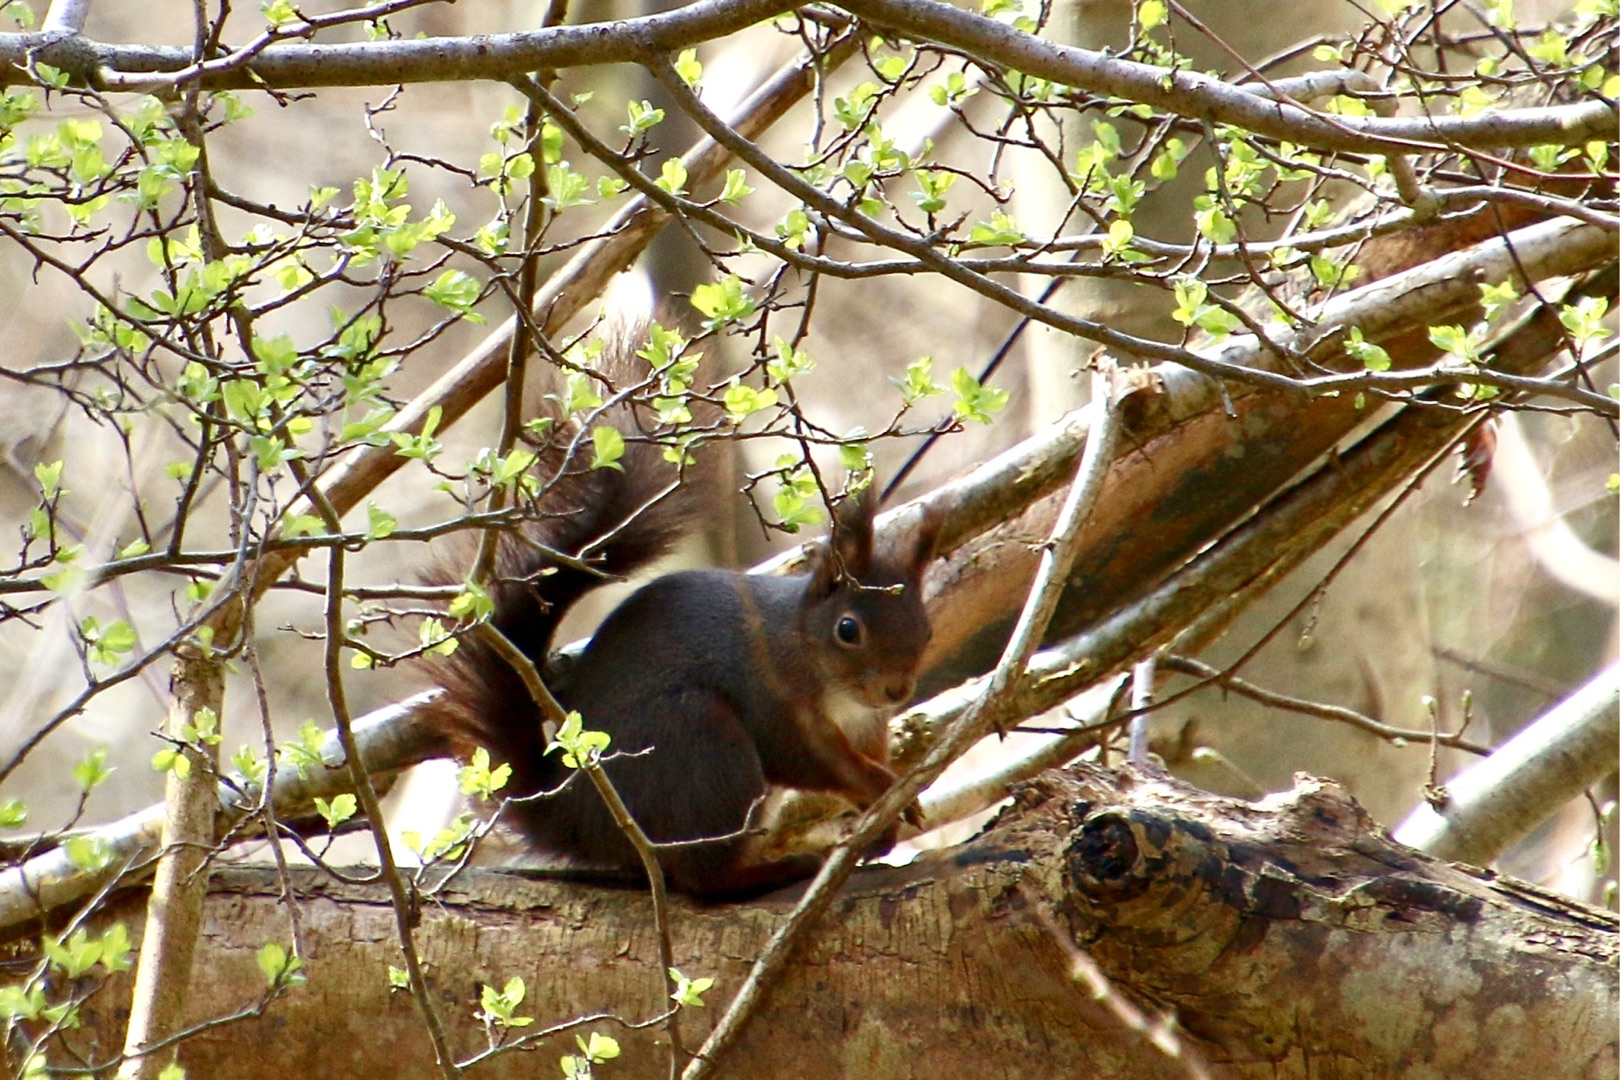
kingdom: Animalia
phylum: Chordata
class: Mammalia
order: Rodentia
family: Sciuridae
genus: Sciurus
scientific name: Sciurus vulgaris
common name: Egern
